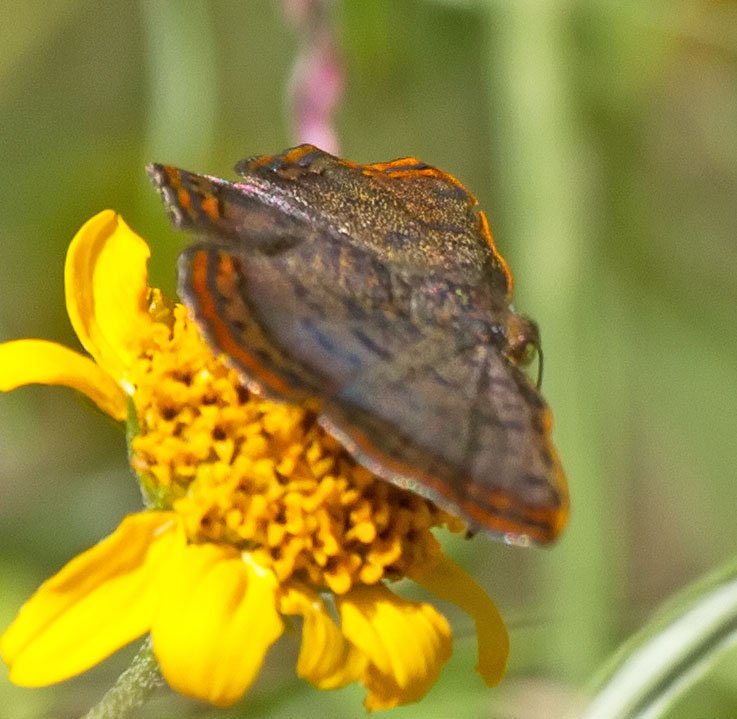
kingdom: Animalia
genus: Caria
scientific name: Caria ino
